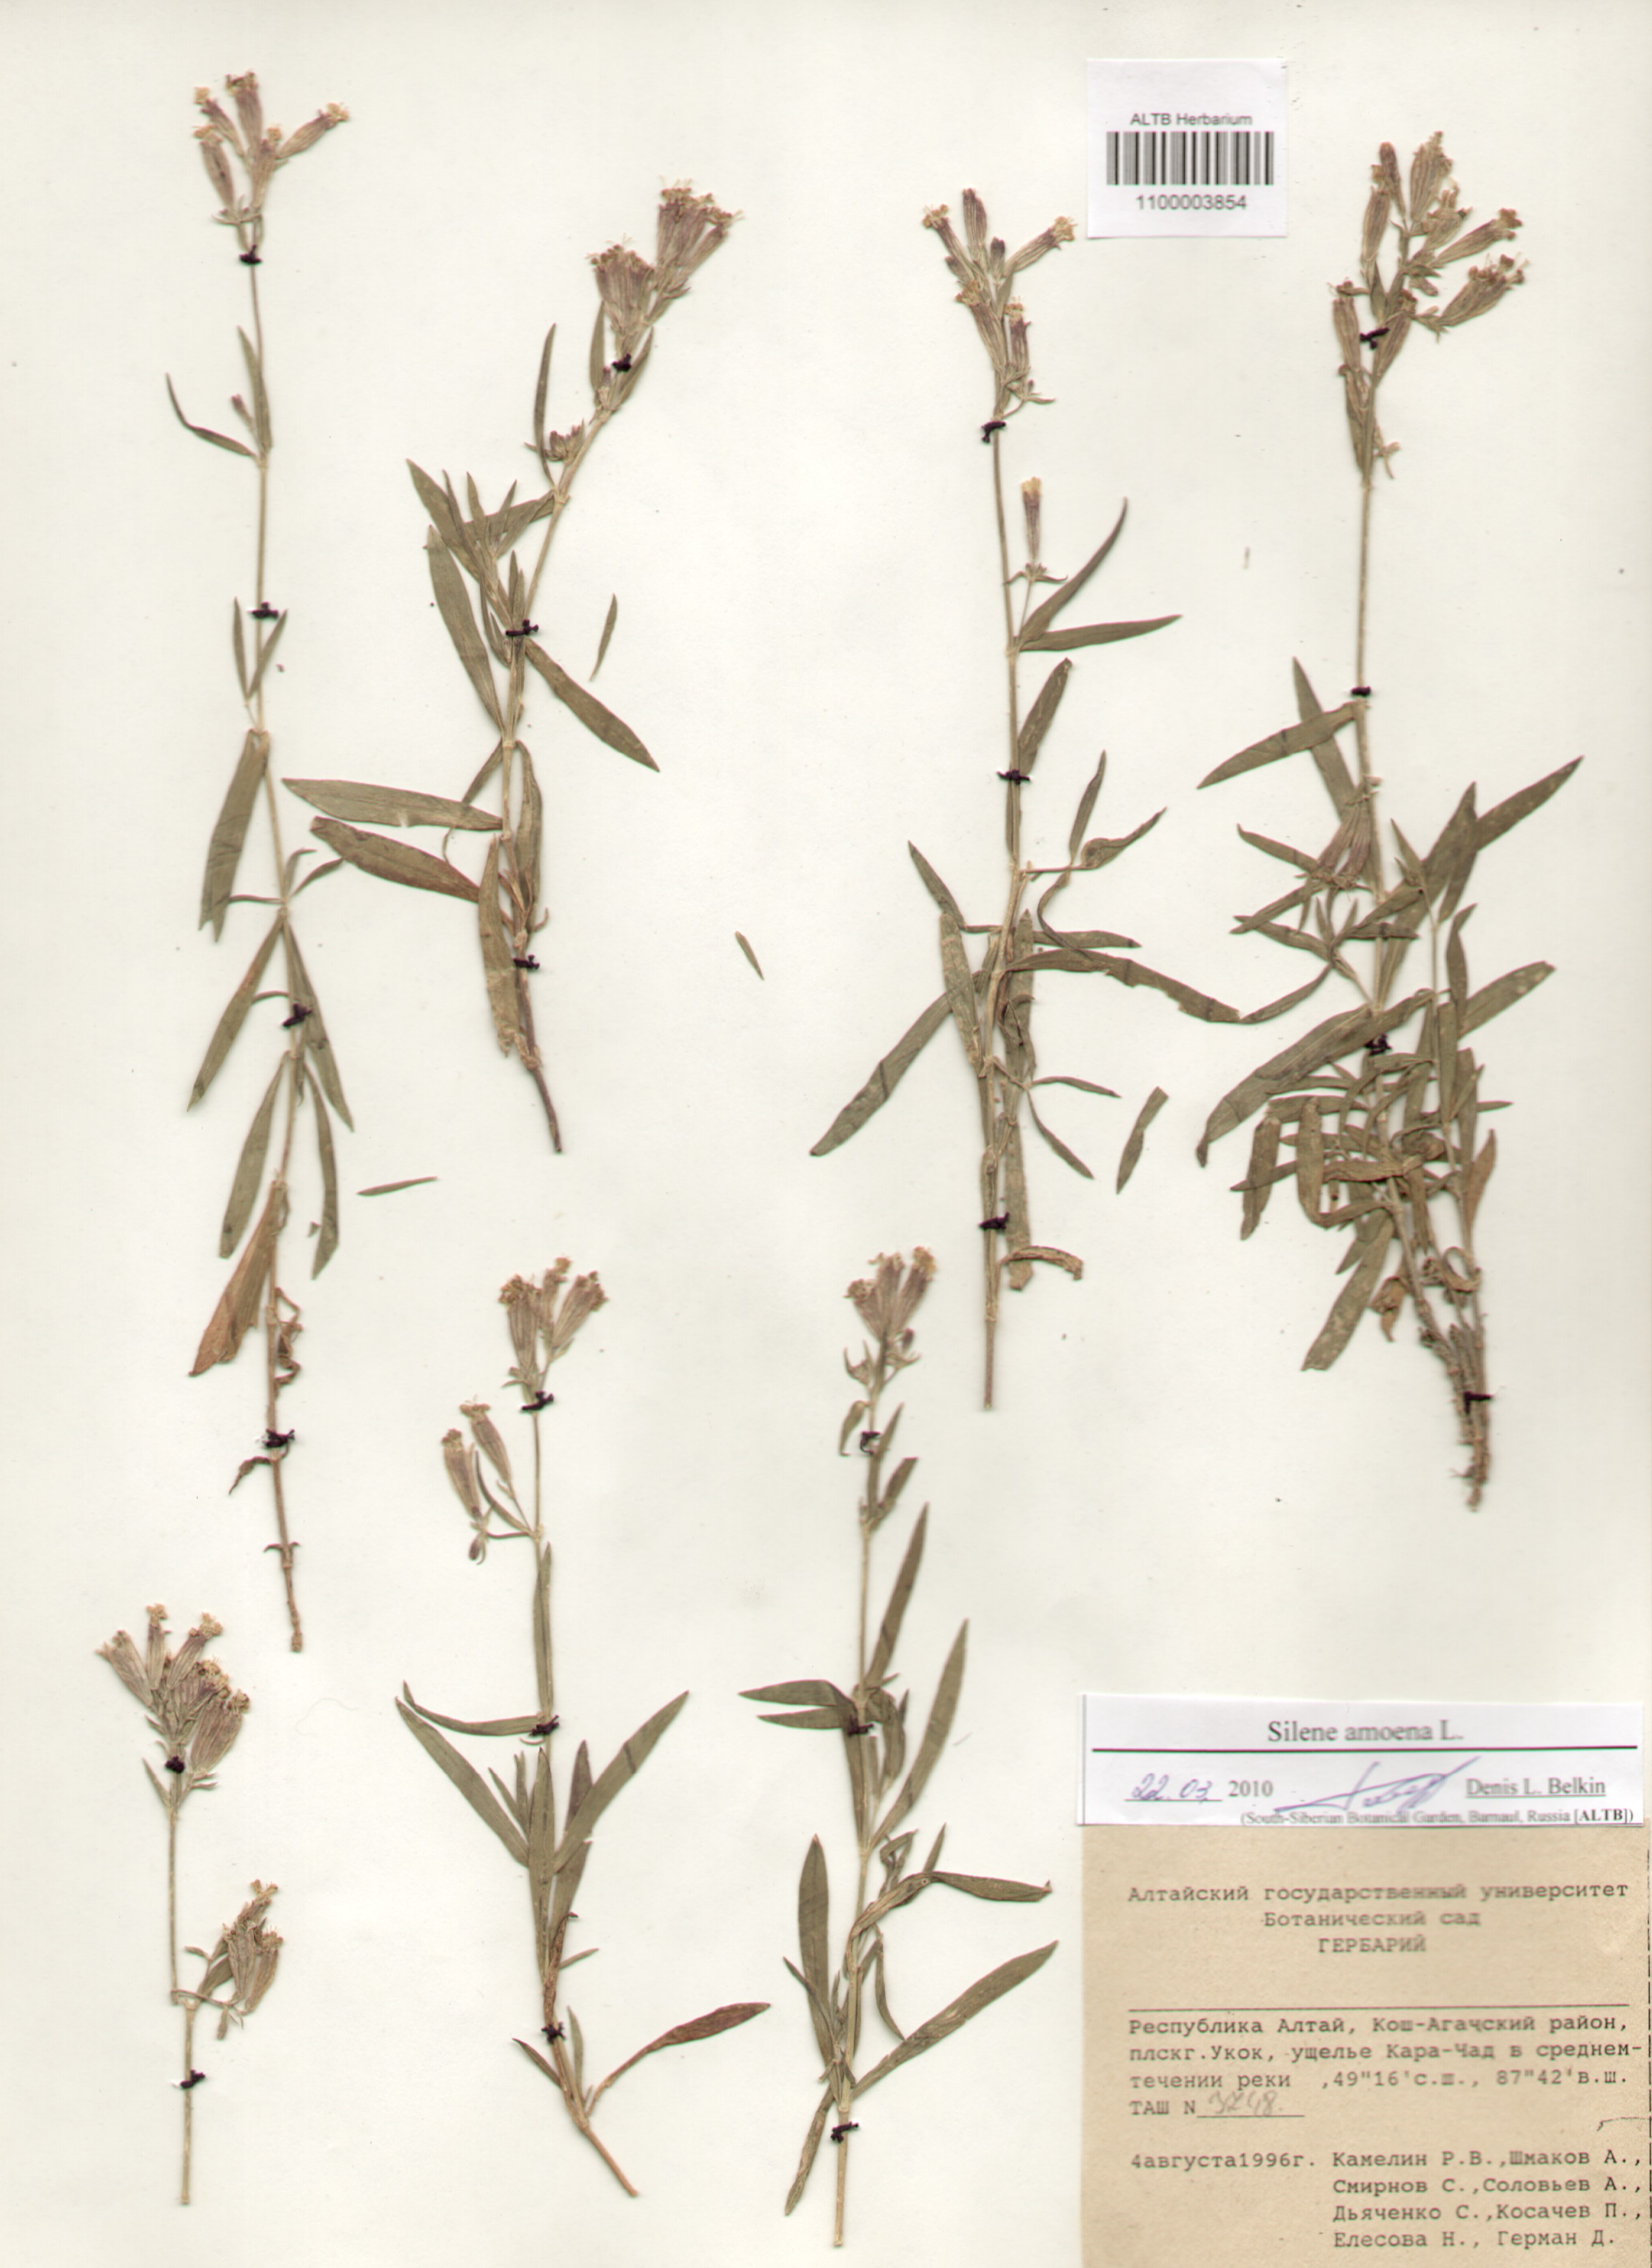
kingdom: Plantae
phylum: Tracheophyta
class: Magnoliopsida
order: Caryophyllales
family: Caryophyllaceae
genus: Silene
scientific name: Silene amoena
